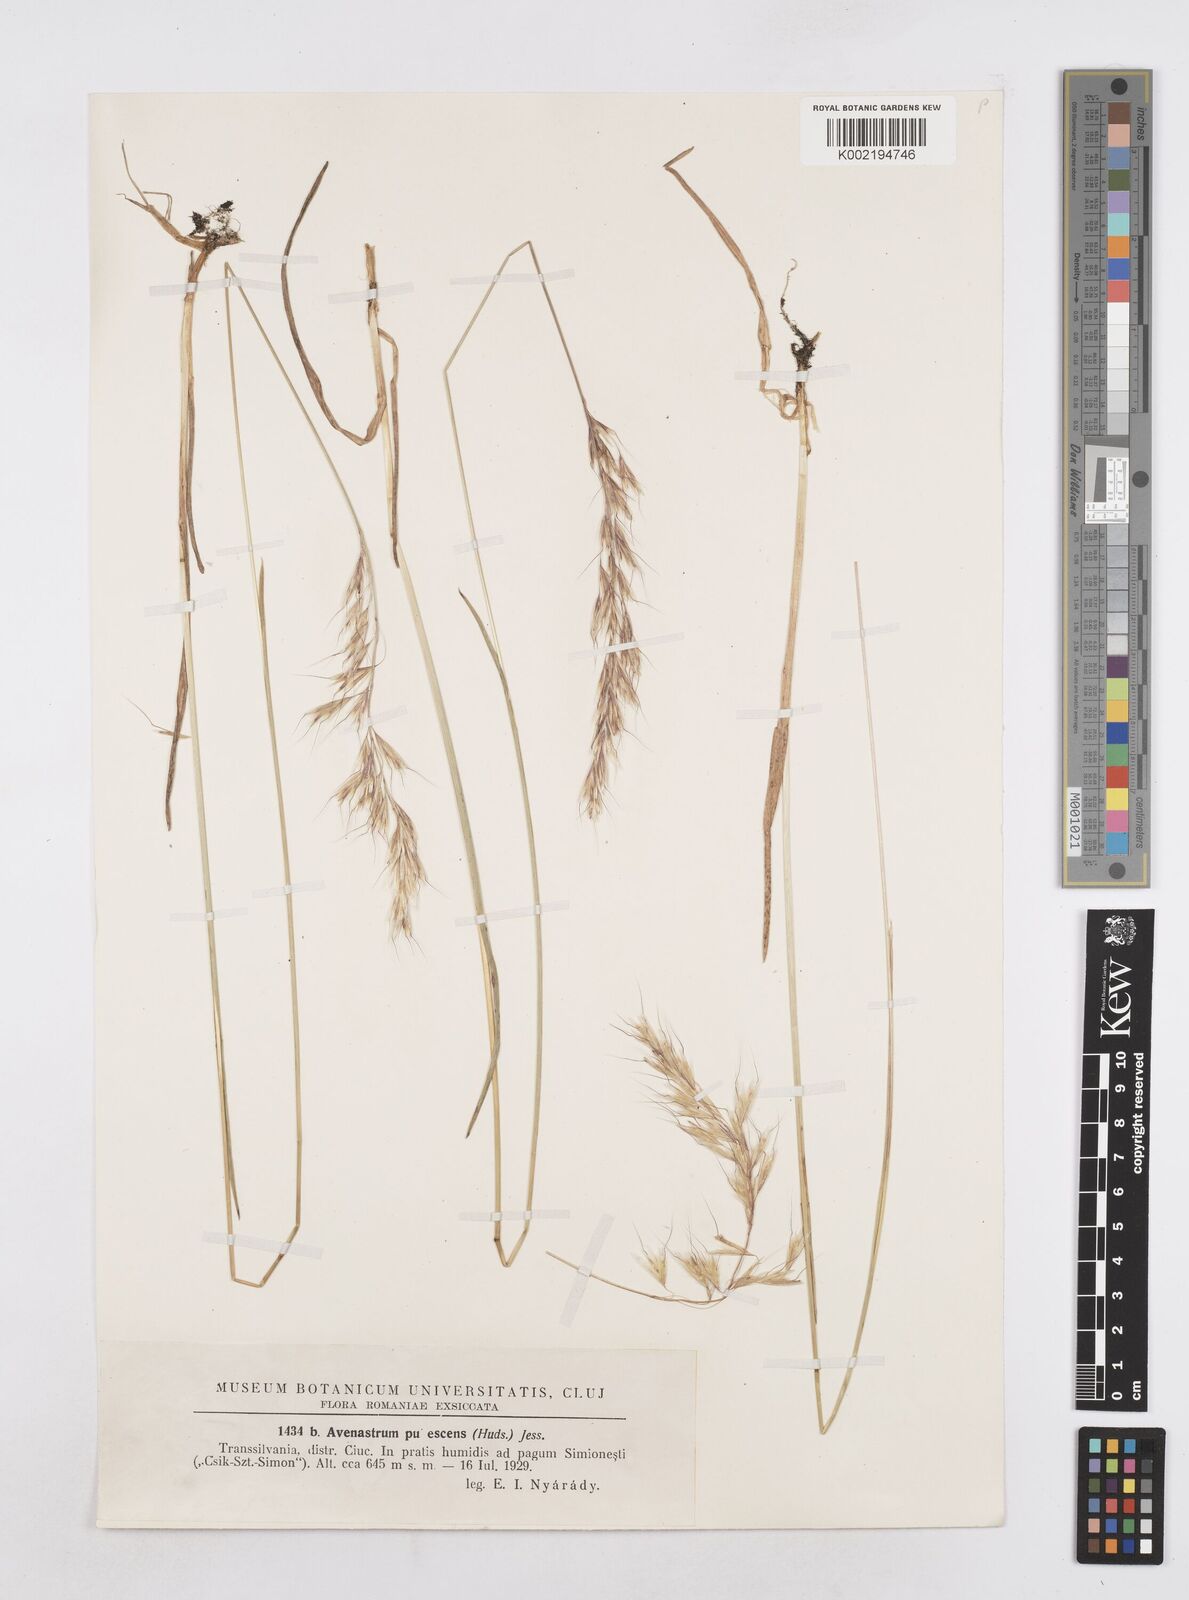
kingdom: Plantae
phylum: Tracheophyta
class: Liliopsida
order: Poales
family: Poaceae
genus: Avenula
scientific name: Avenula pubescens
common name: Downy alpine oatgrass
